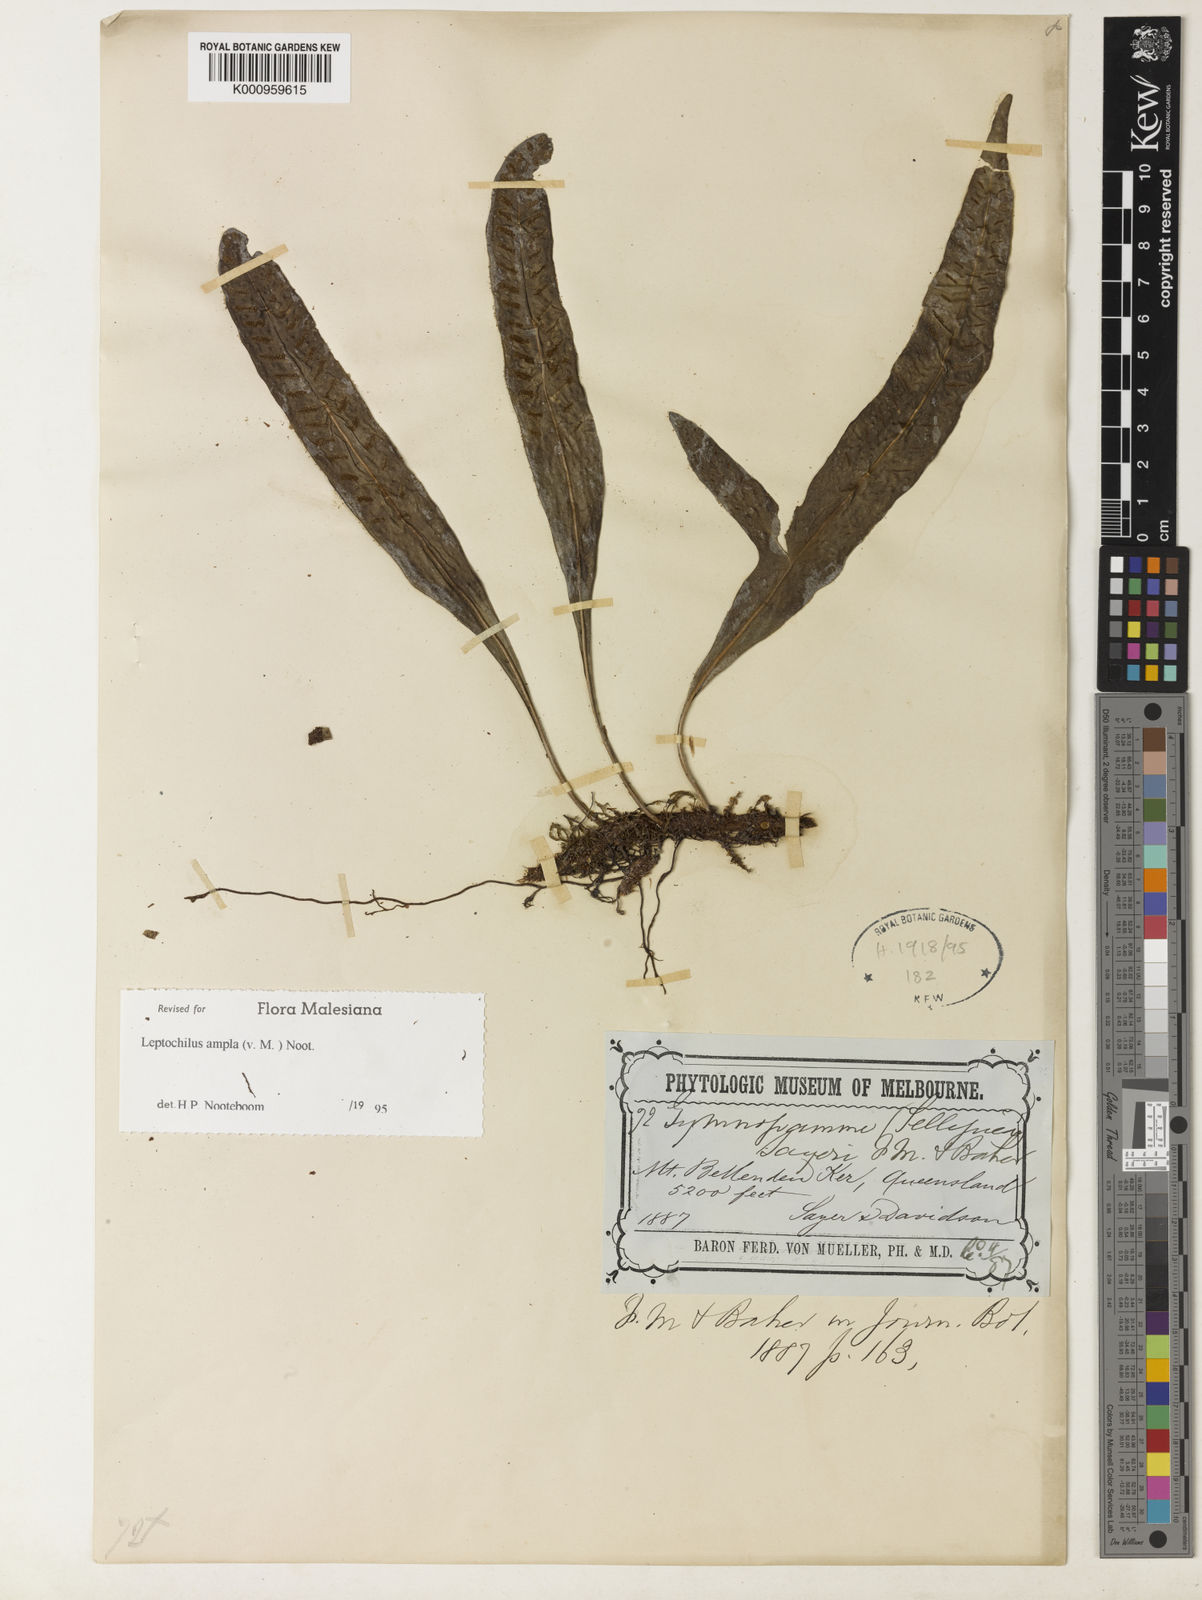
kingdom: Plantae
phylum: Tracheophyta
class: Polypodiopsida
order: Polypodiales
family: Polypodiaceae
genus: Lecanopteris
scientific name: Lecanopteris ampla
